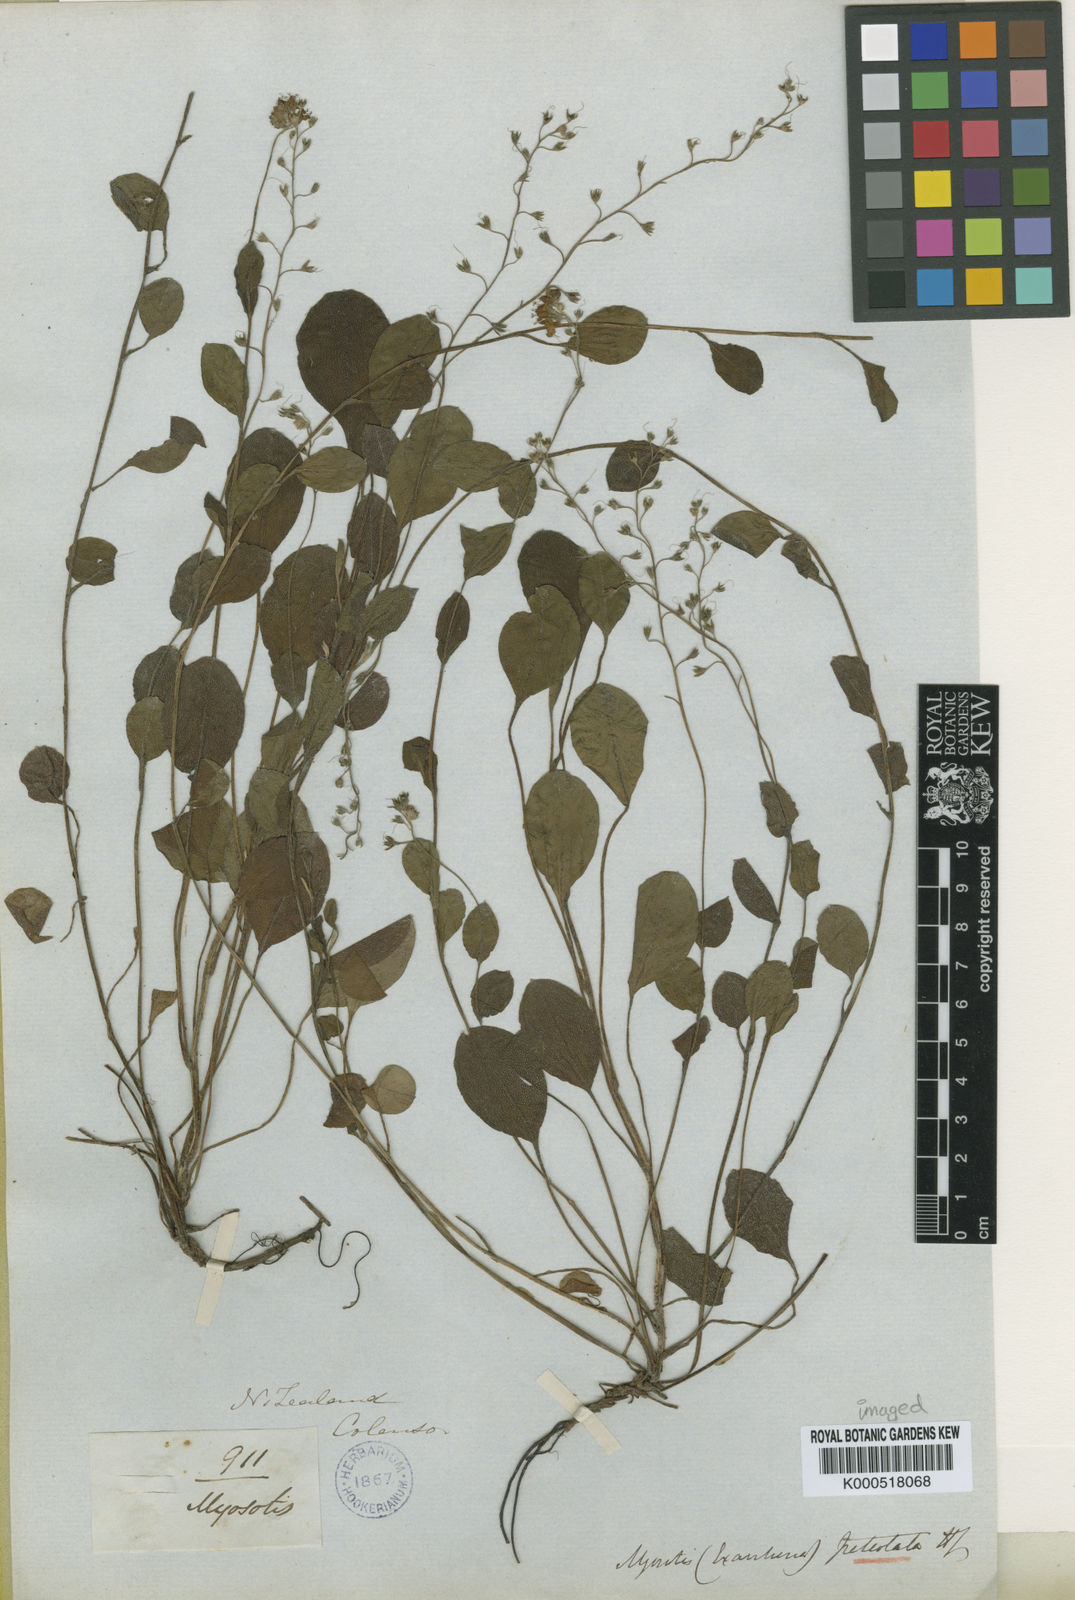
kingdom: Plantae
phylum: Tracheophyta
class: Magnoliopsida
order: Boraginales
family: Boraginaceae
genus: Myosotis
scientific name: Myosotis petiolata
